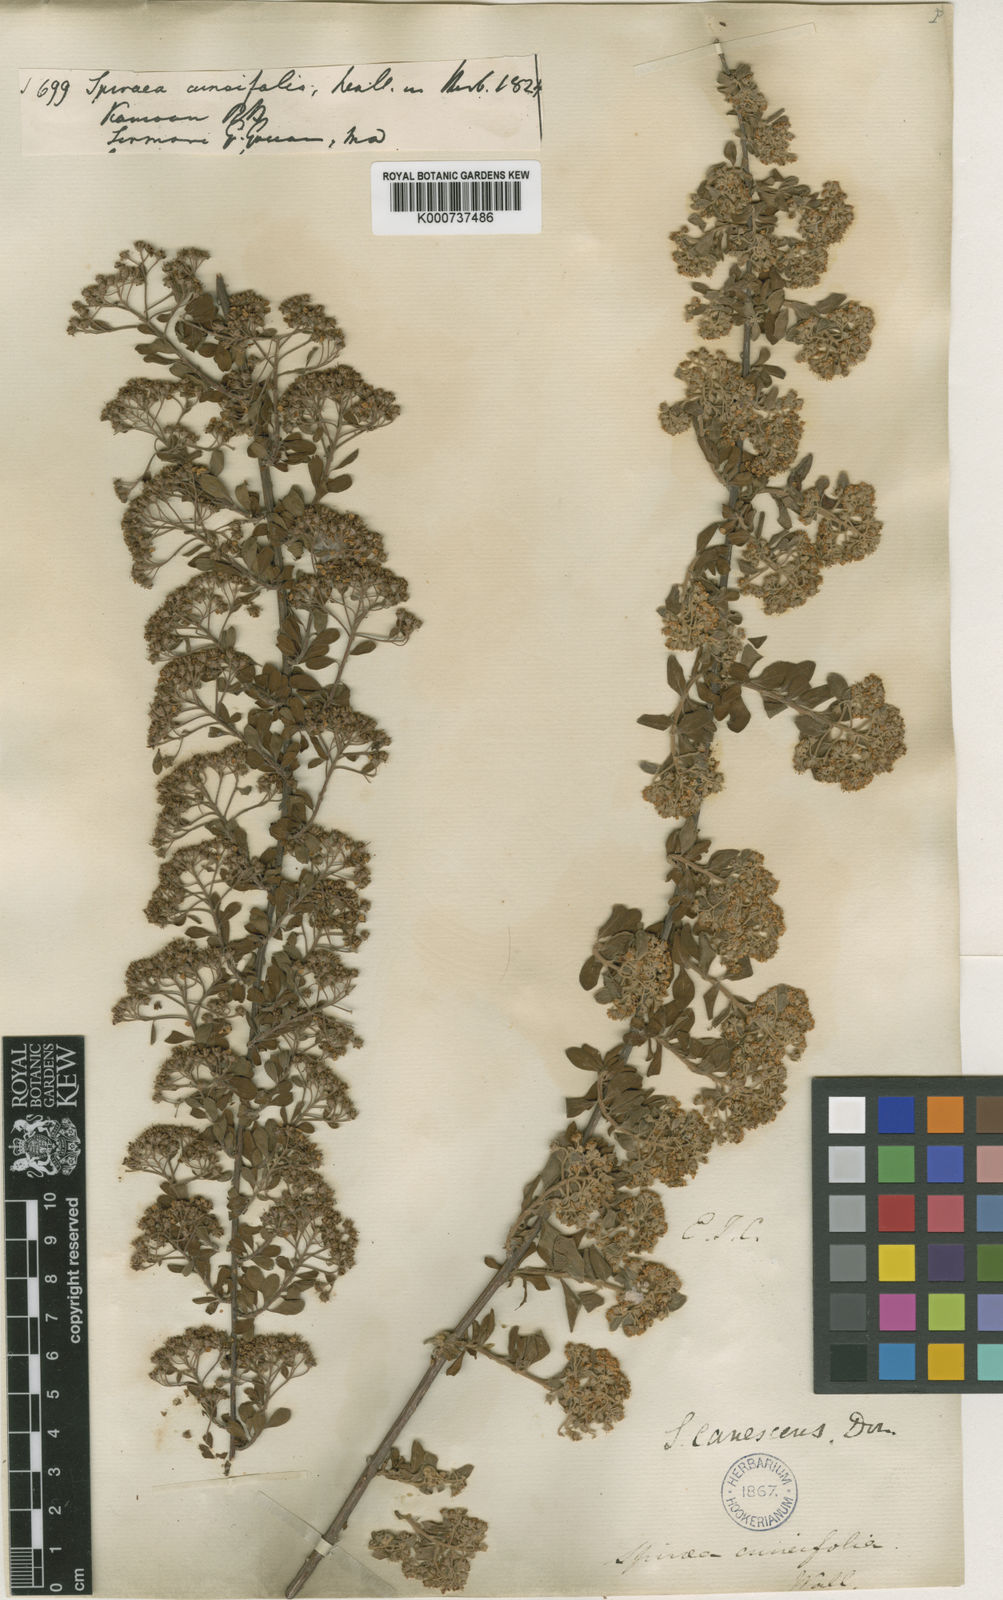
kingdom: Plantae
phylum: Tracheophyta
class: Magnoliopsida
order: Rosales
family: Rosaceae
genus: Spiraea
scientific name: Spiraea
